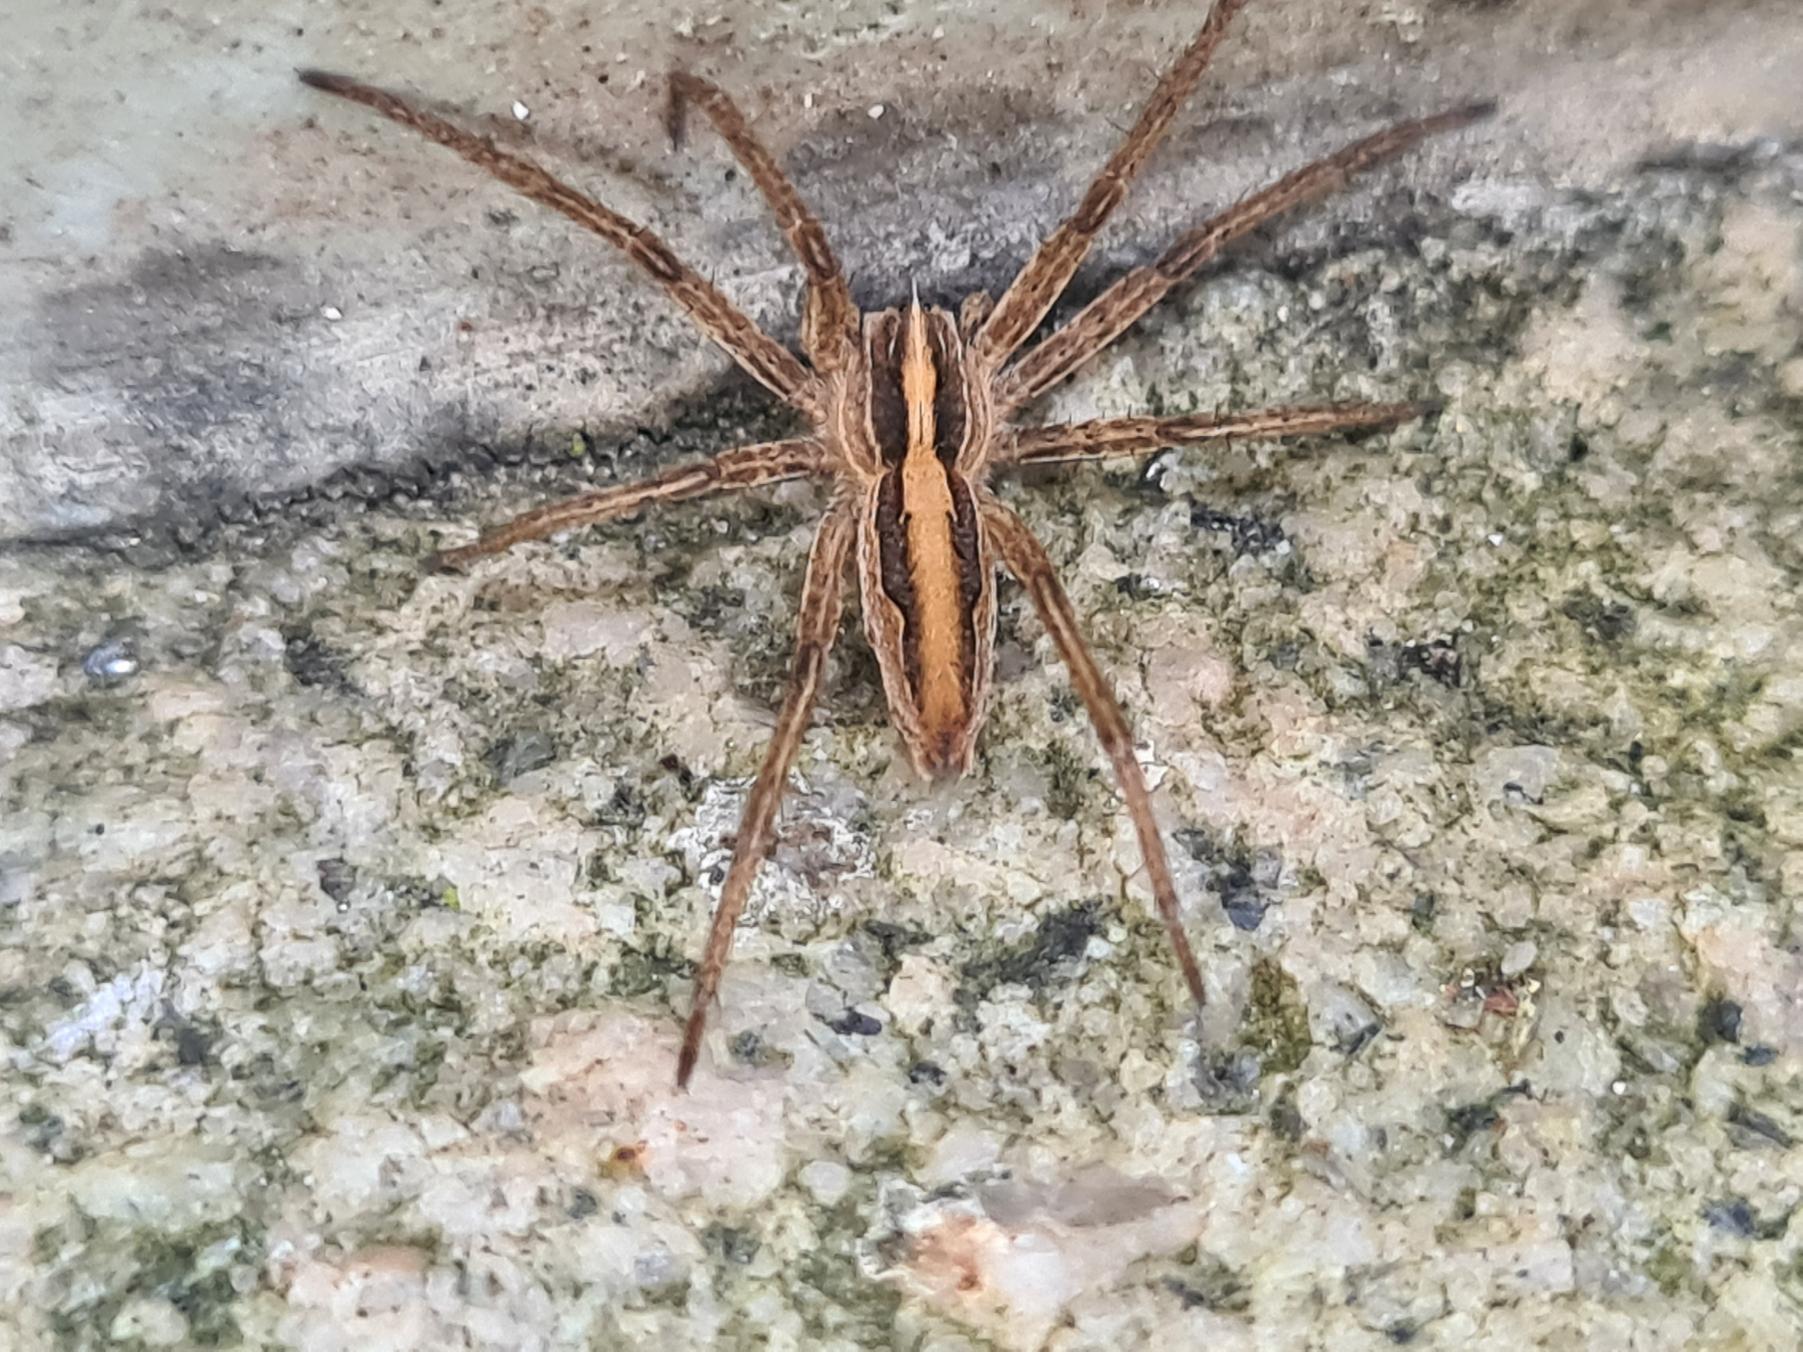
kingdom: Animalia
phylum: Arthropoda
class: Arachnida
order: Araneae
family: Pisauridae
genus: Pisaura
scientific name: Pisaura mirabilis
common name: Almindelig rovedderkop
